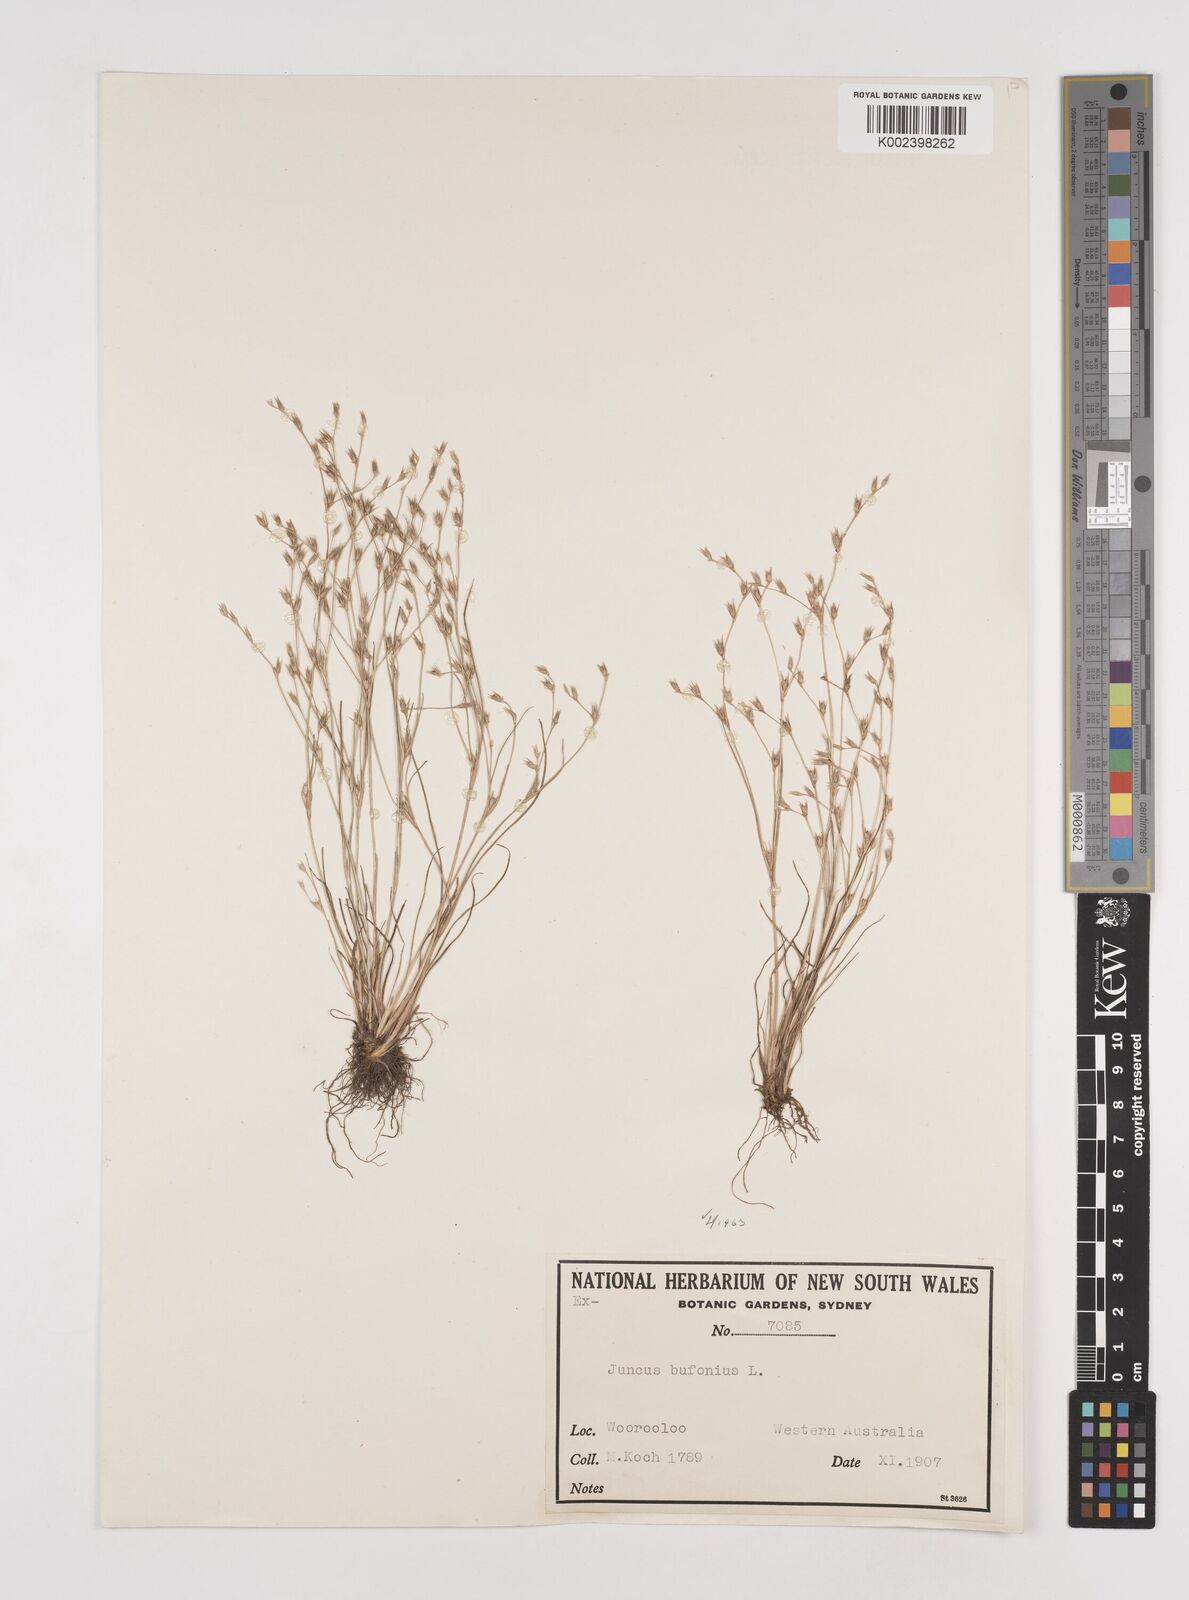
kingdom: Plantae
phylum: Tracheophyta
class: Liliopsida
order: Poales
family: Juncaceae
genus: Juncus
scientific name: Juncus bufonius
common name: Toad rush
